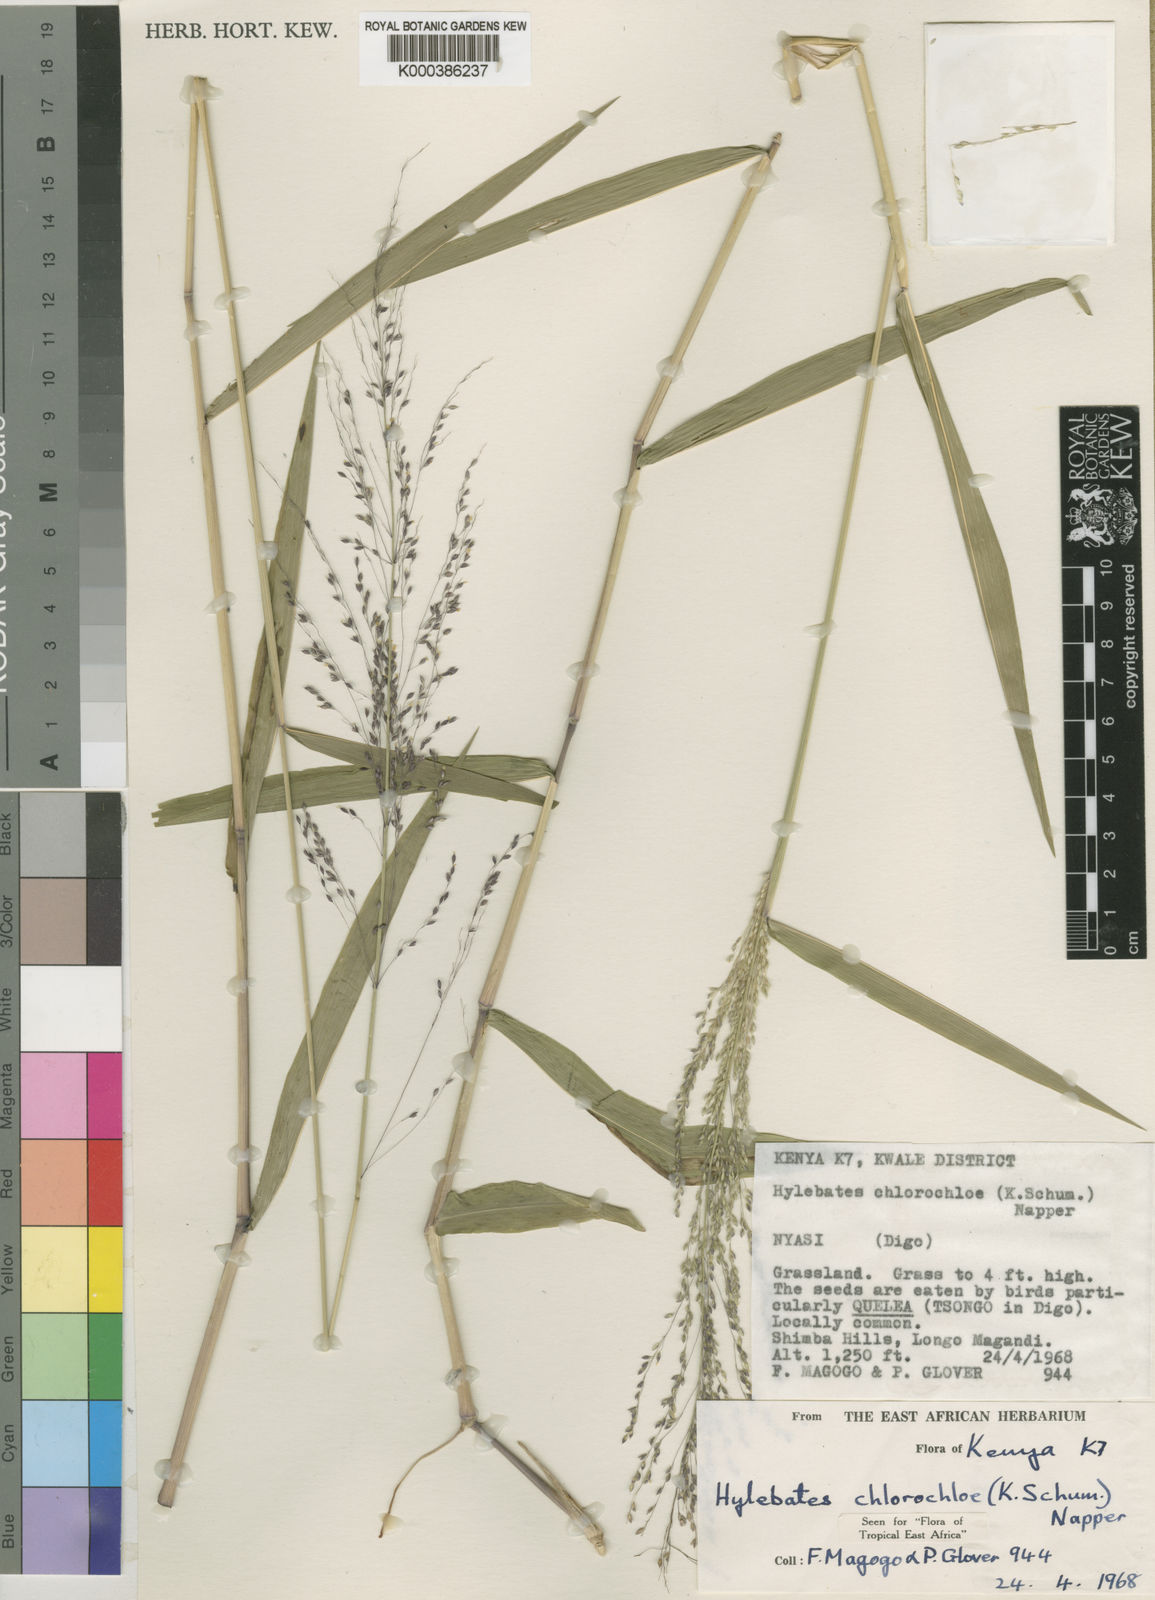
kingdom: Plantae
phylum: Tracheophyta
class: Liliopsida
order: Poales
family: Poaceae
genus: Hylebates
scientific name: Hylebates chlorochloe
